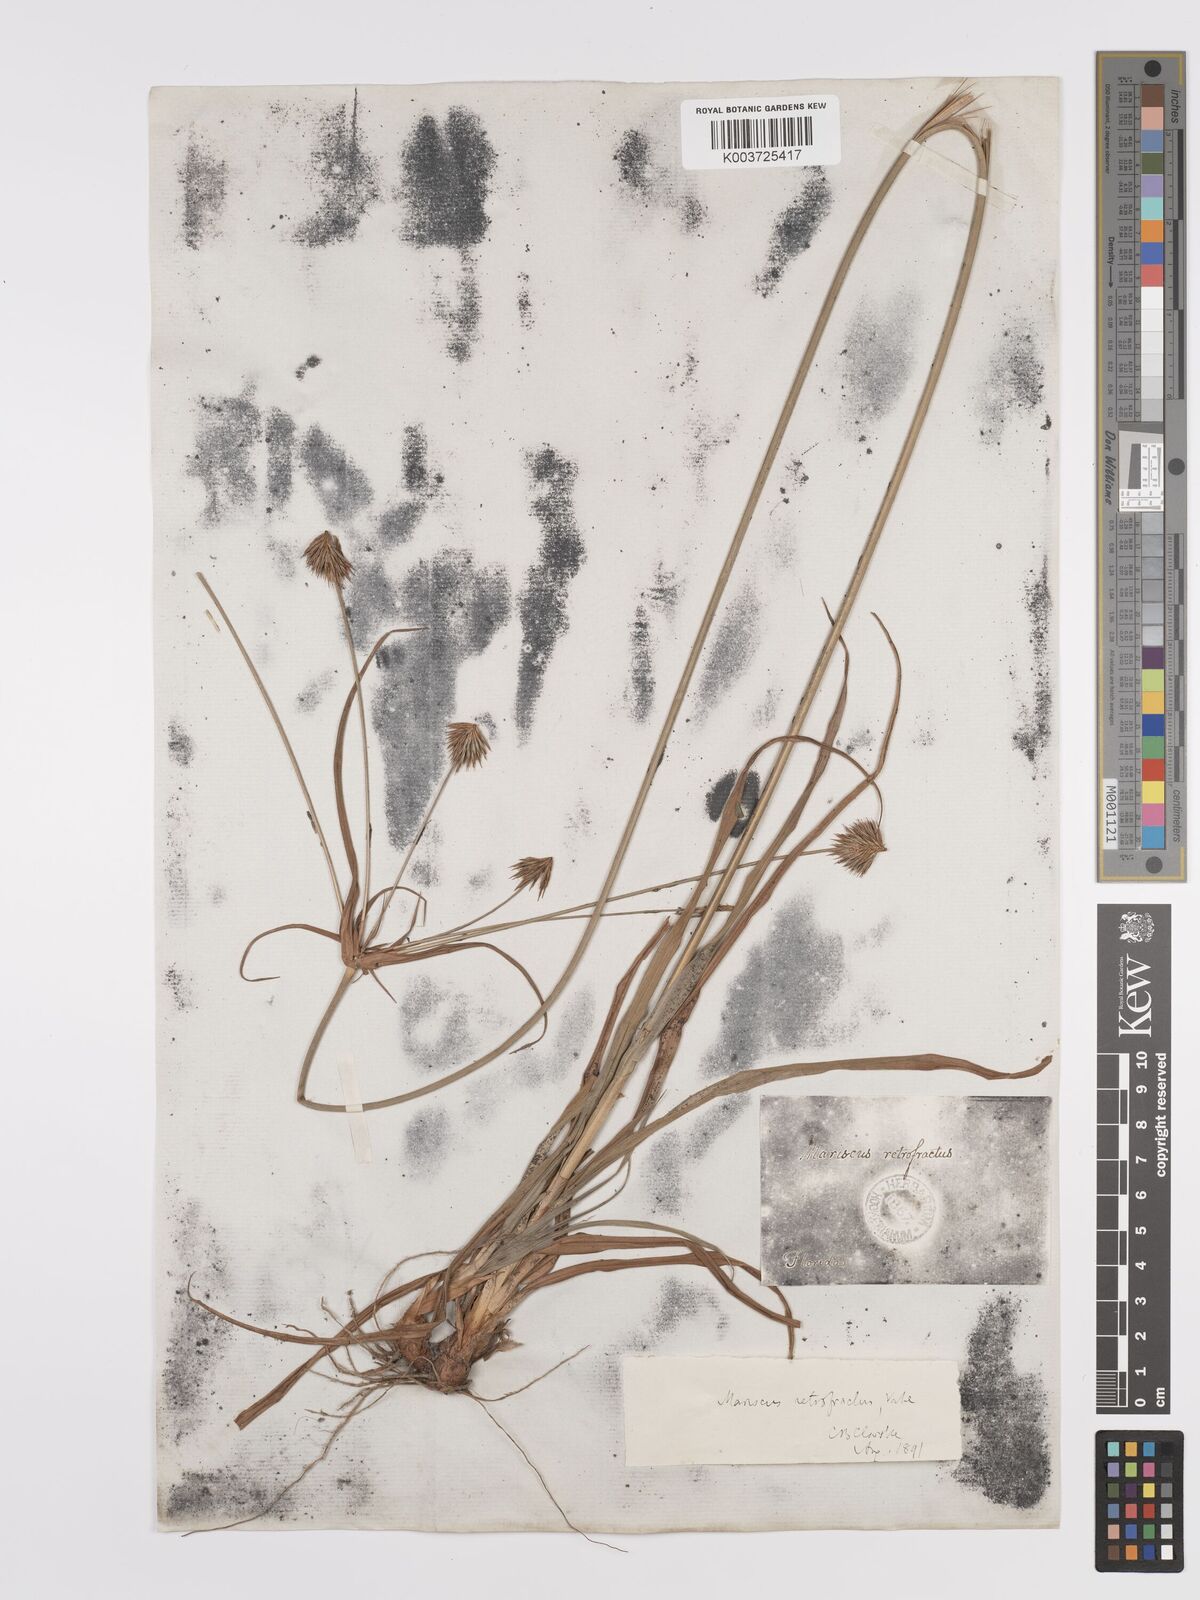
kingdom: Plantae
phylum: Tracheophyta
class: Liliopsida
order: Poales
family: Cyperaceae
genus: Cyperus
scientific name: Cyperus retrofractus
